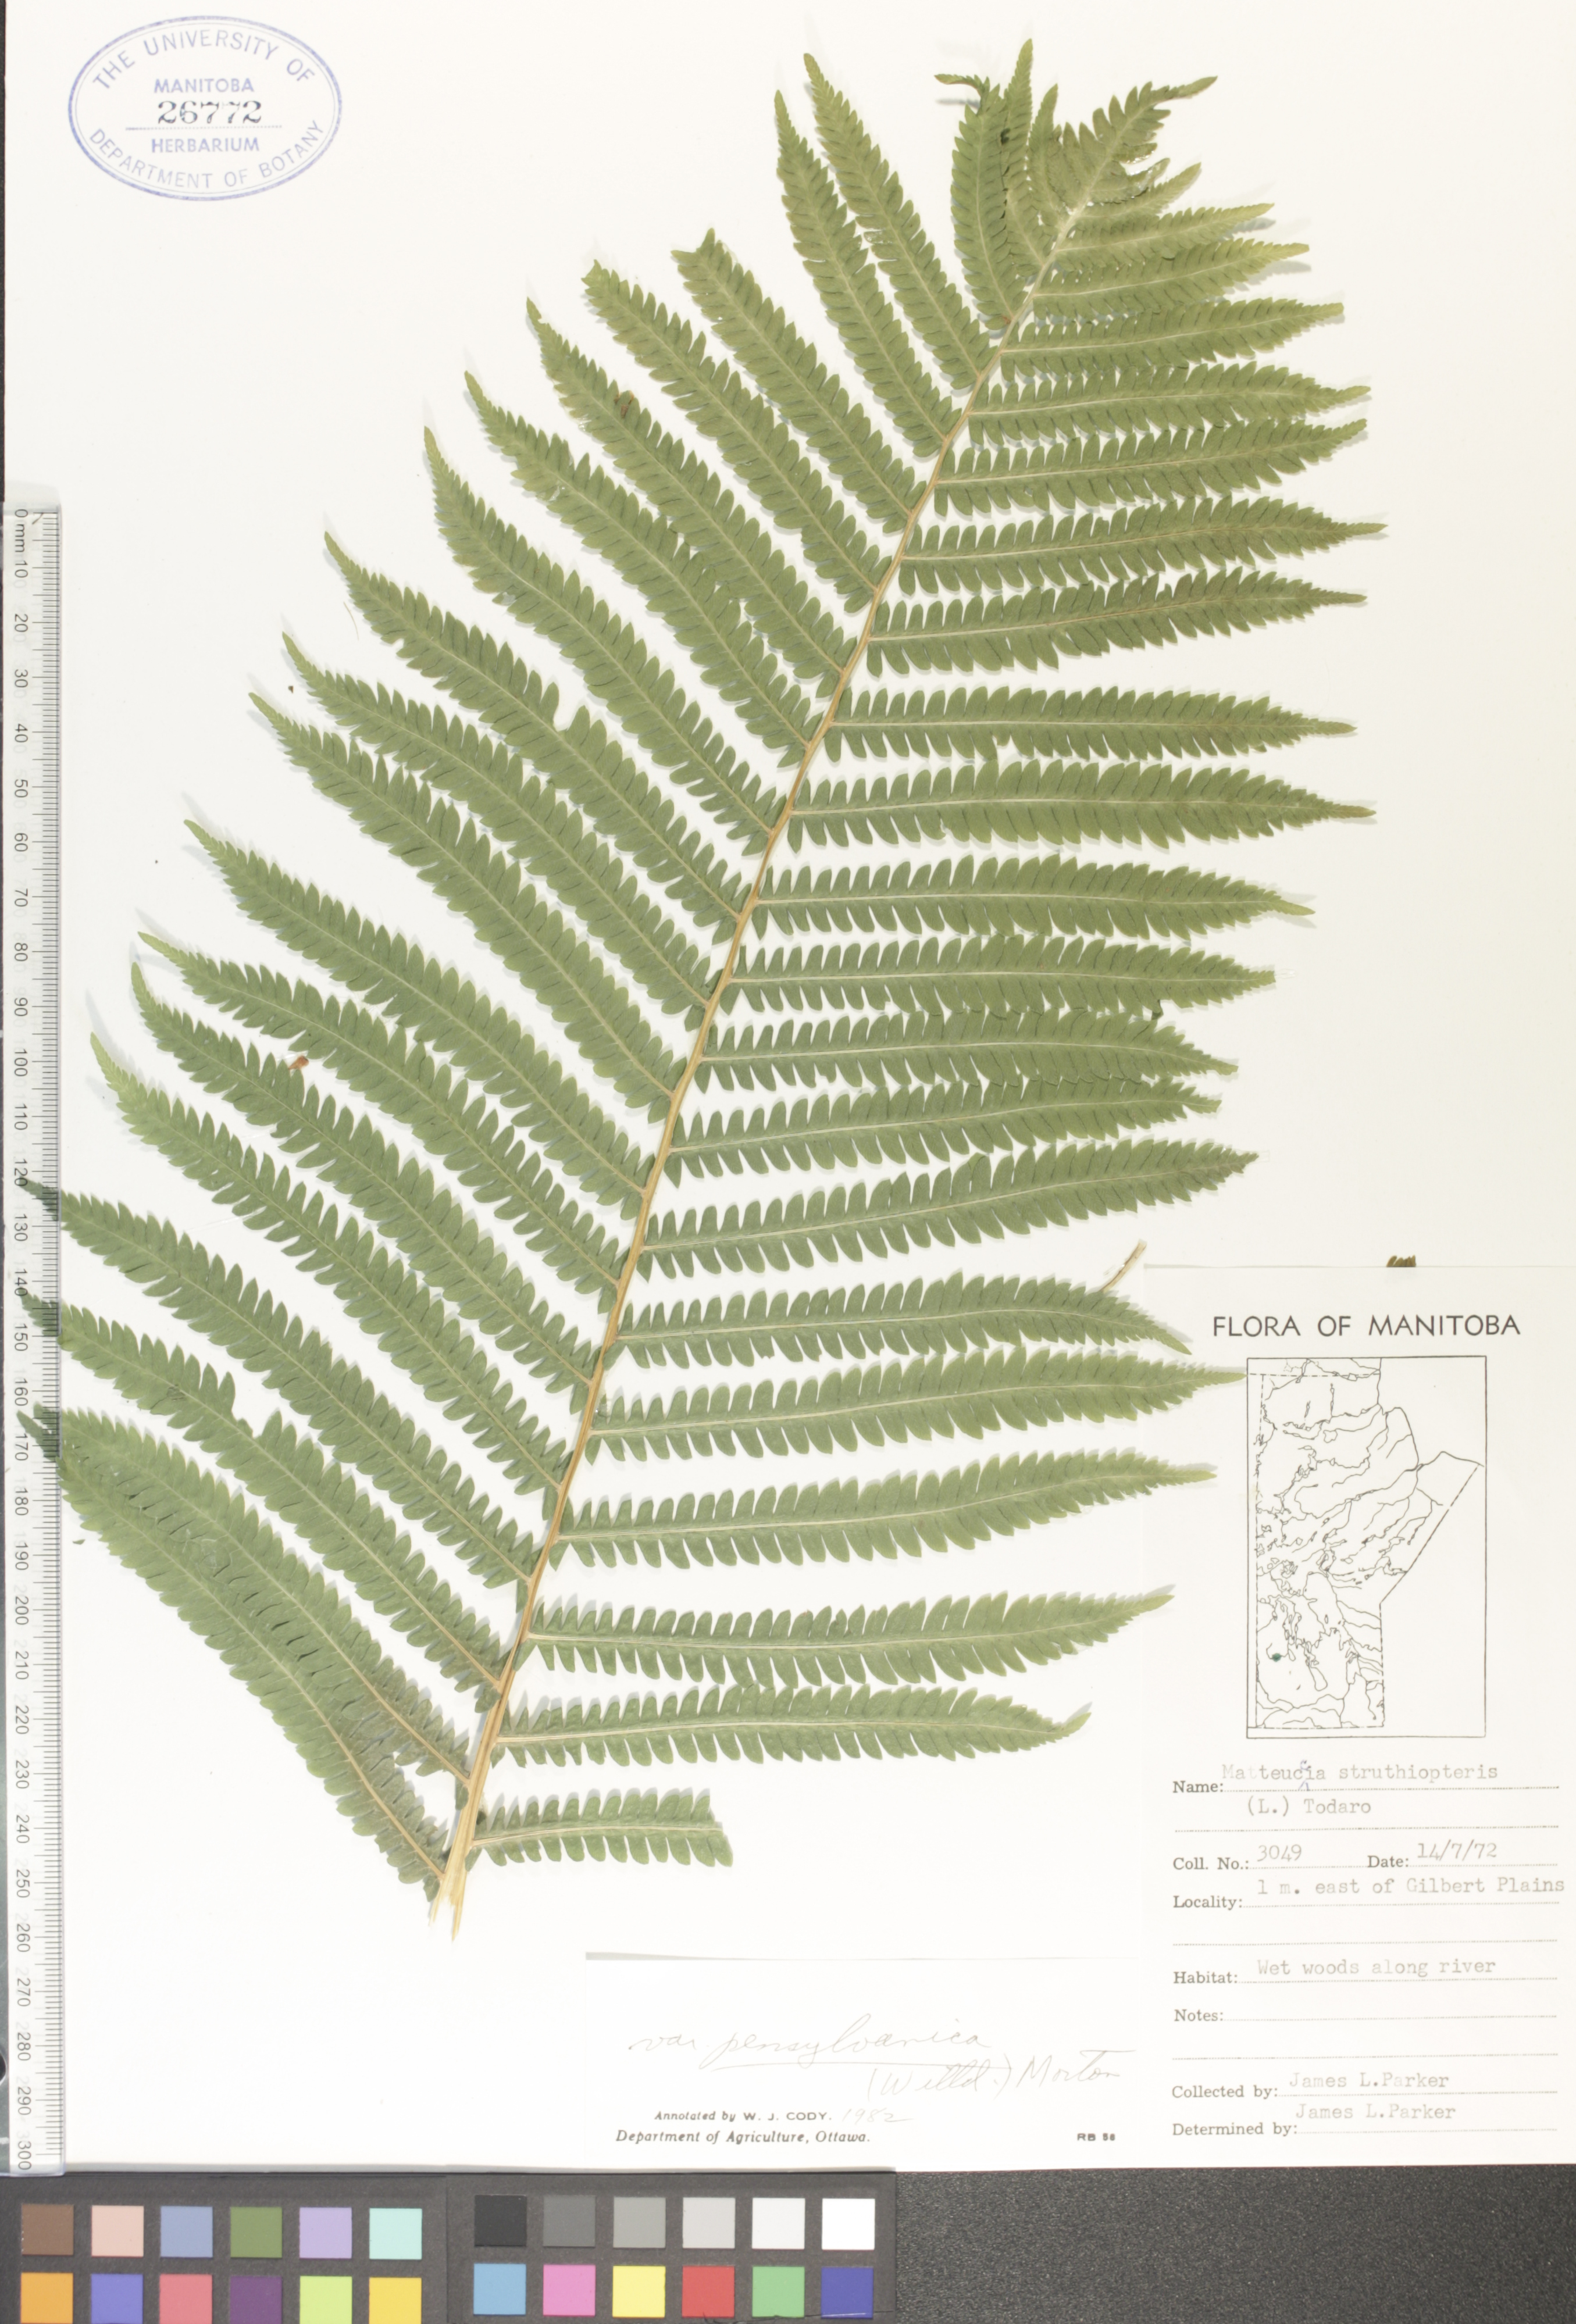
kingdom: Plantae
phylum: Tracheophyta
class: Polypodiopsida
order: Polypodiales
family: Onocleaceae
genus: Matteuccia
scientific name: Matteuccia pensylvanica
